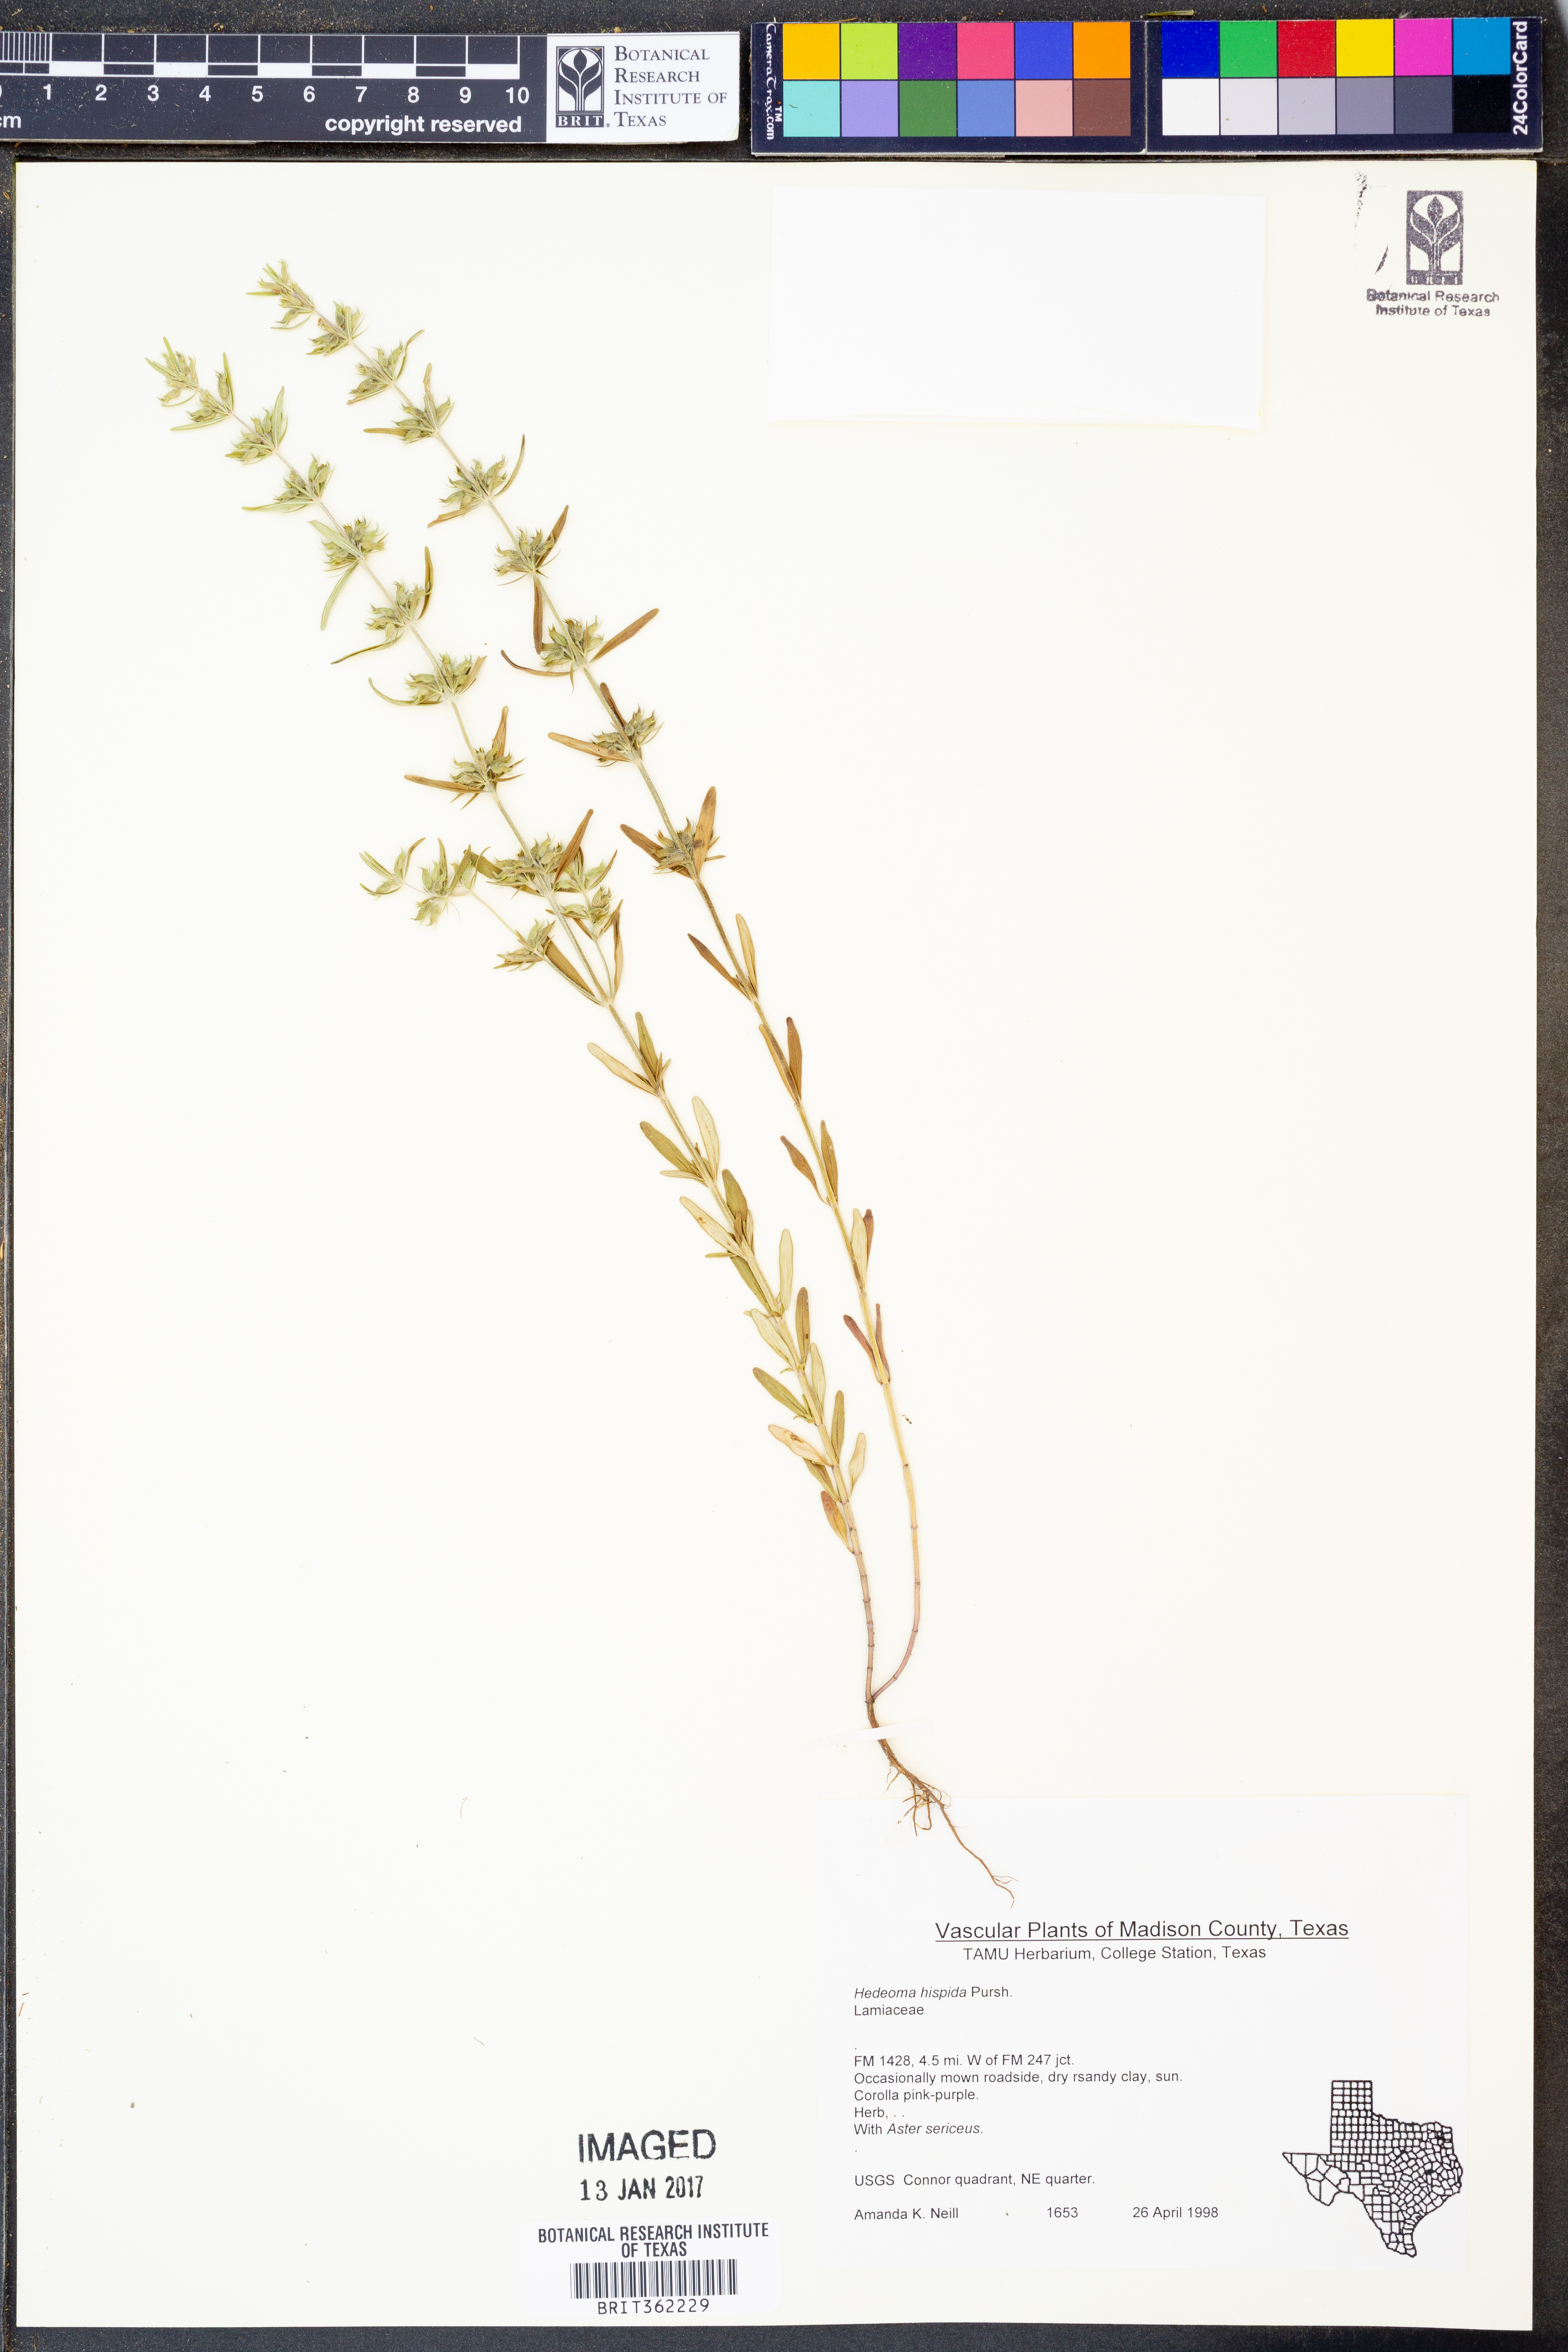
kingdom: Plantae
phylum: Tracheophyta
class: Magnoliopsida
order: Lamiales
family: Lamiaceae
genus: Hedeoma
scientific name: Hedeoma hispida
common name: Mock pennyroyal
